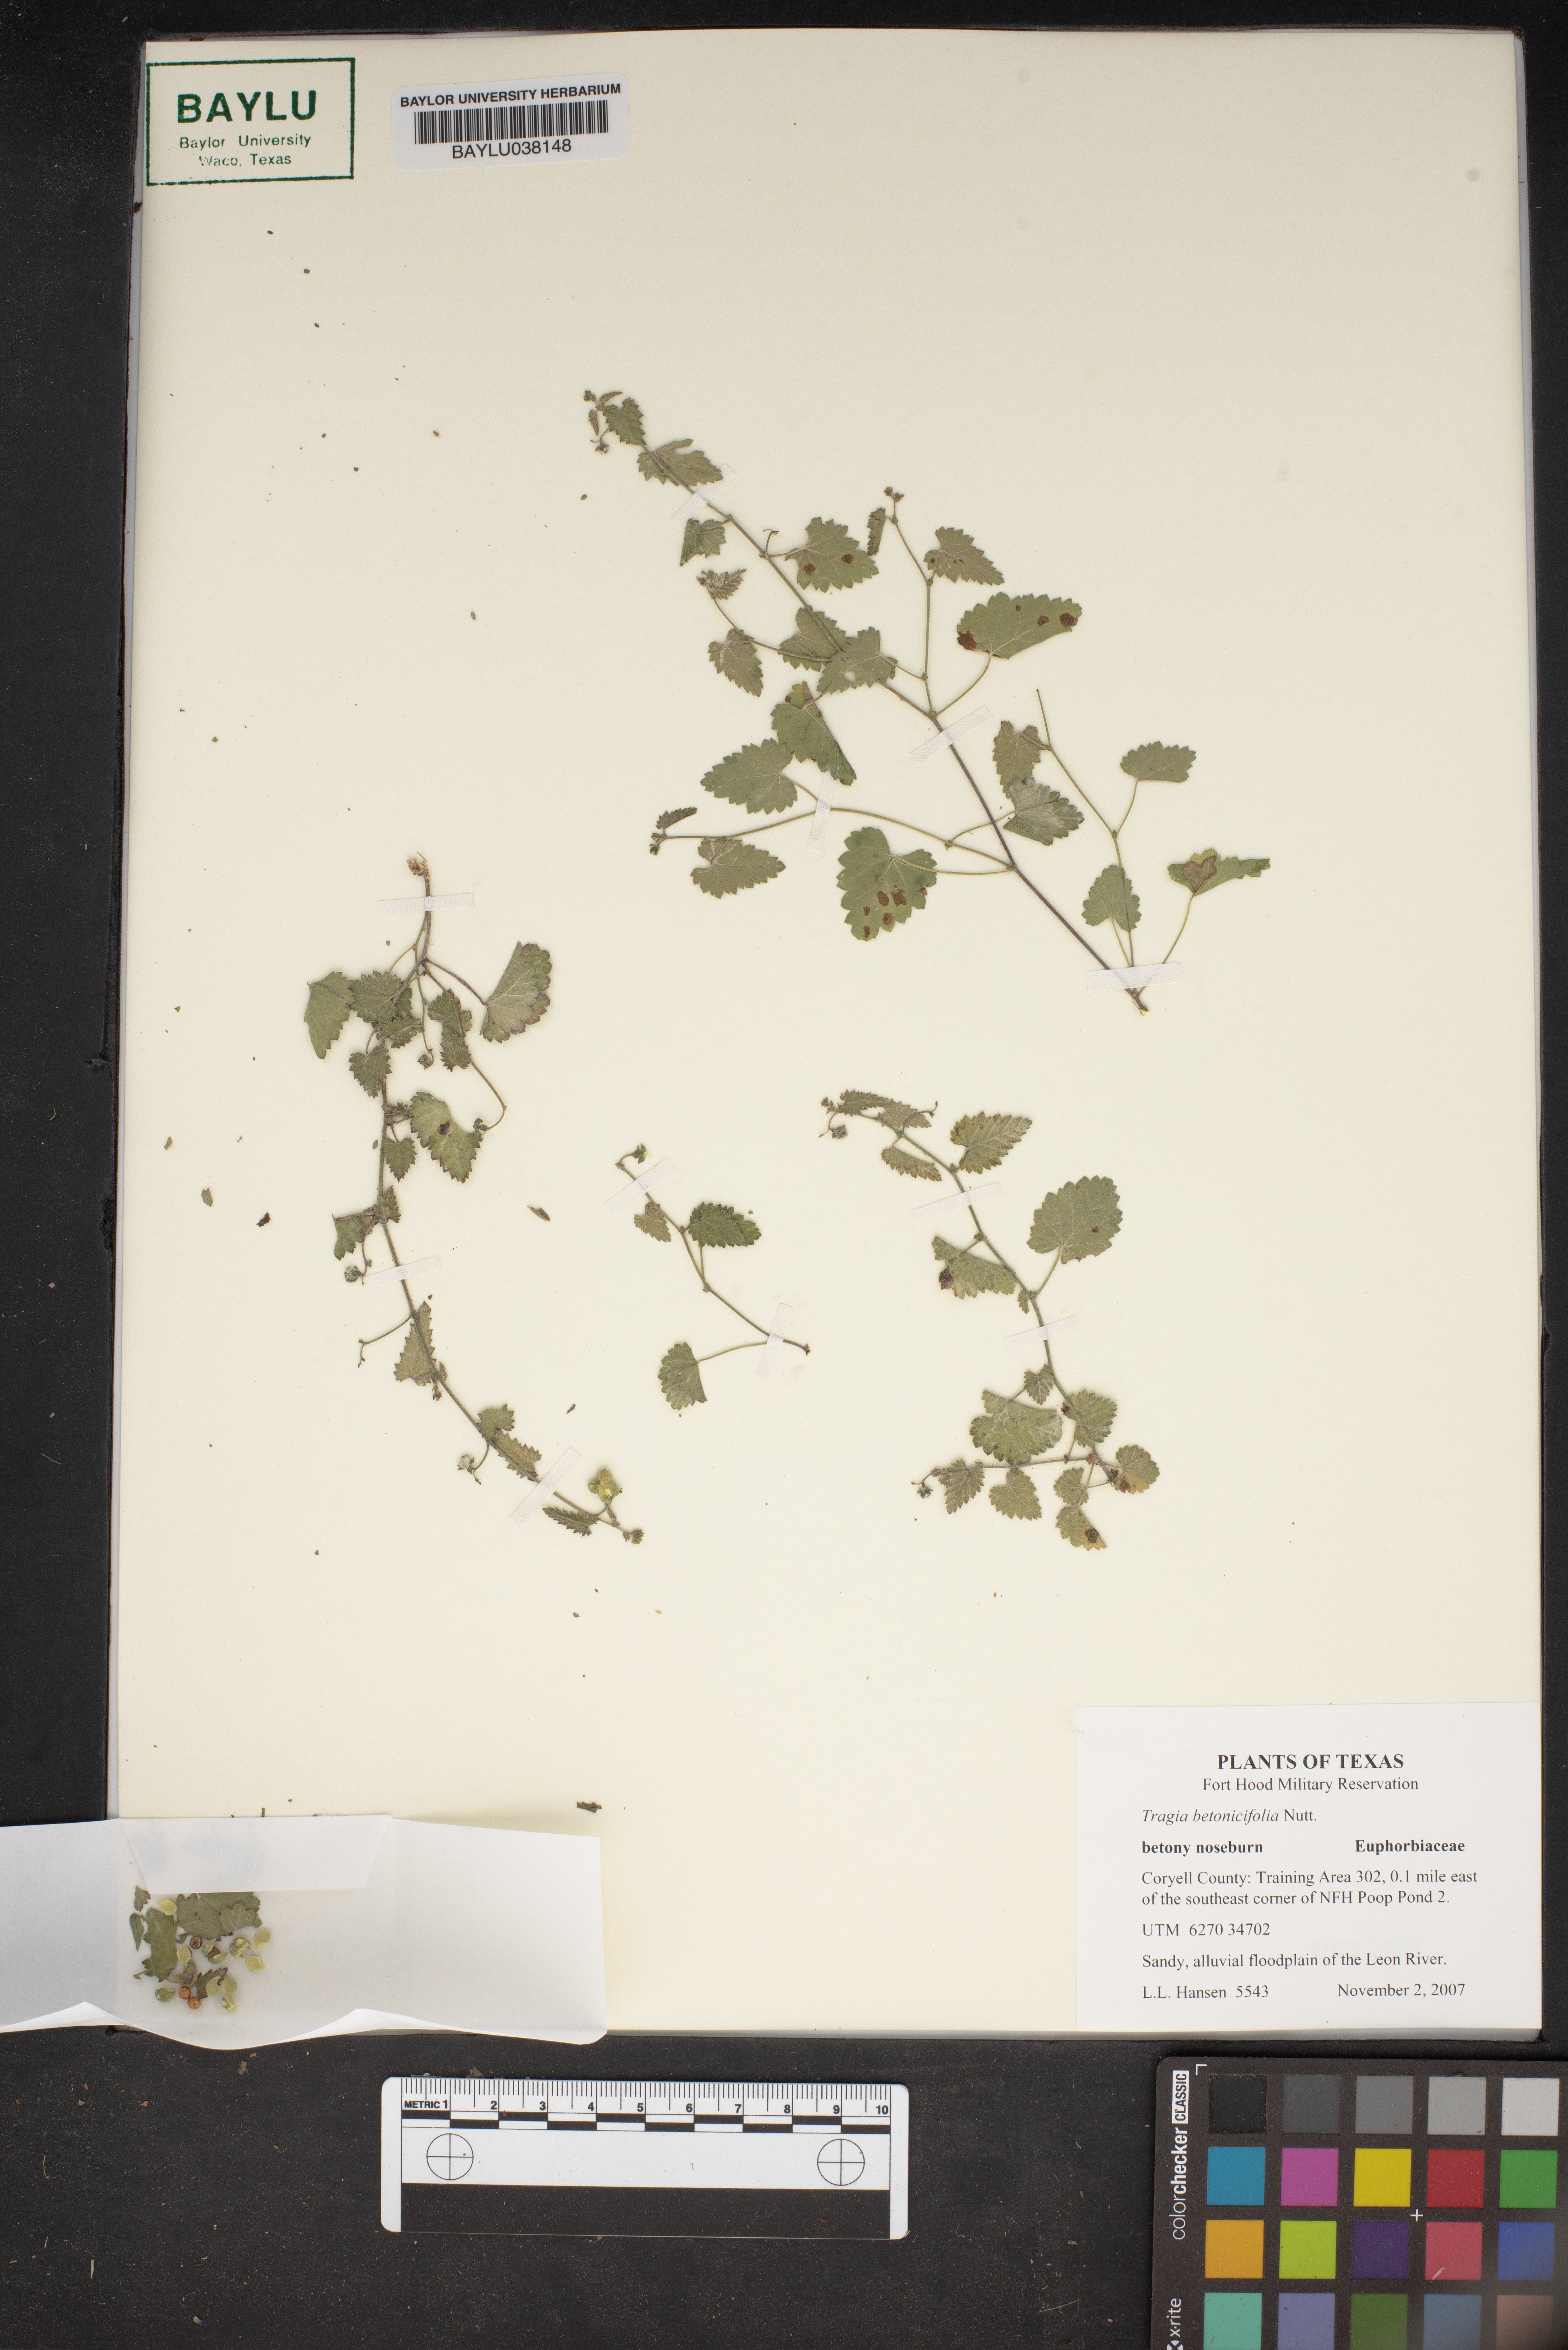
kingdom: Plantae
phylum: Tracheophyta
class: Magnoliopsida
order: Malpighiales
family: Euphorbiaceae
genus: Tragia
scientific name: Tragia betonicifolia
